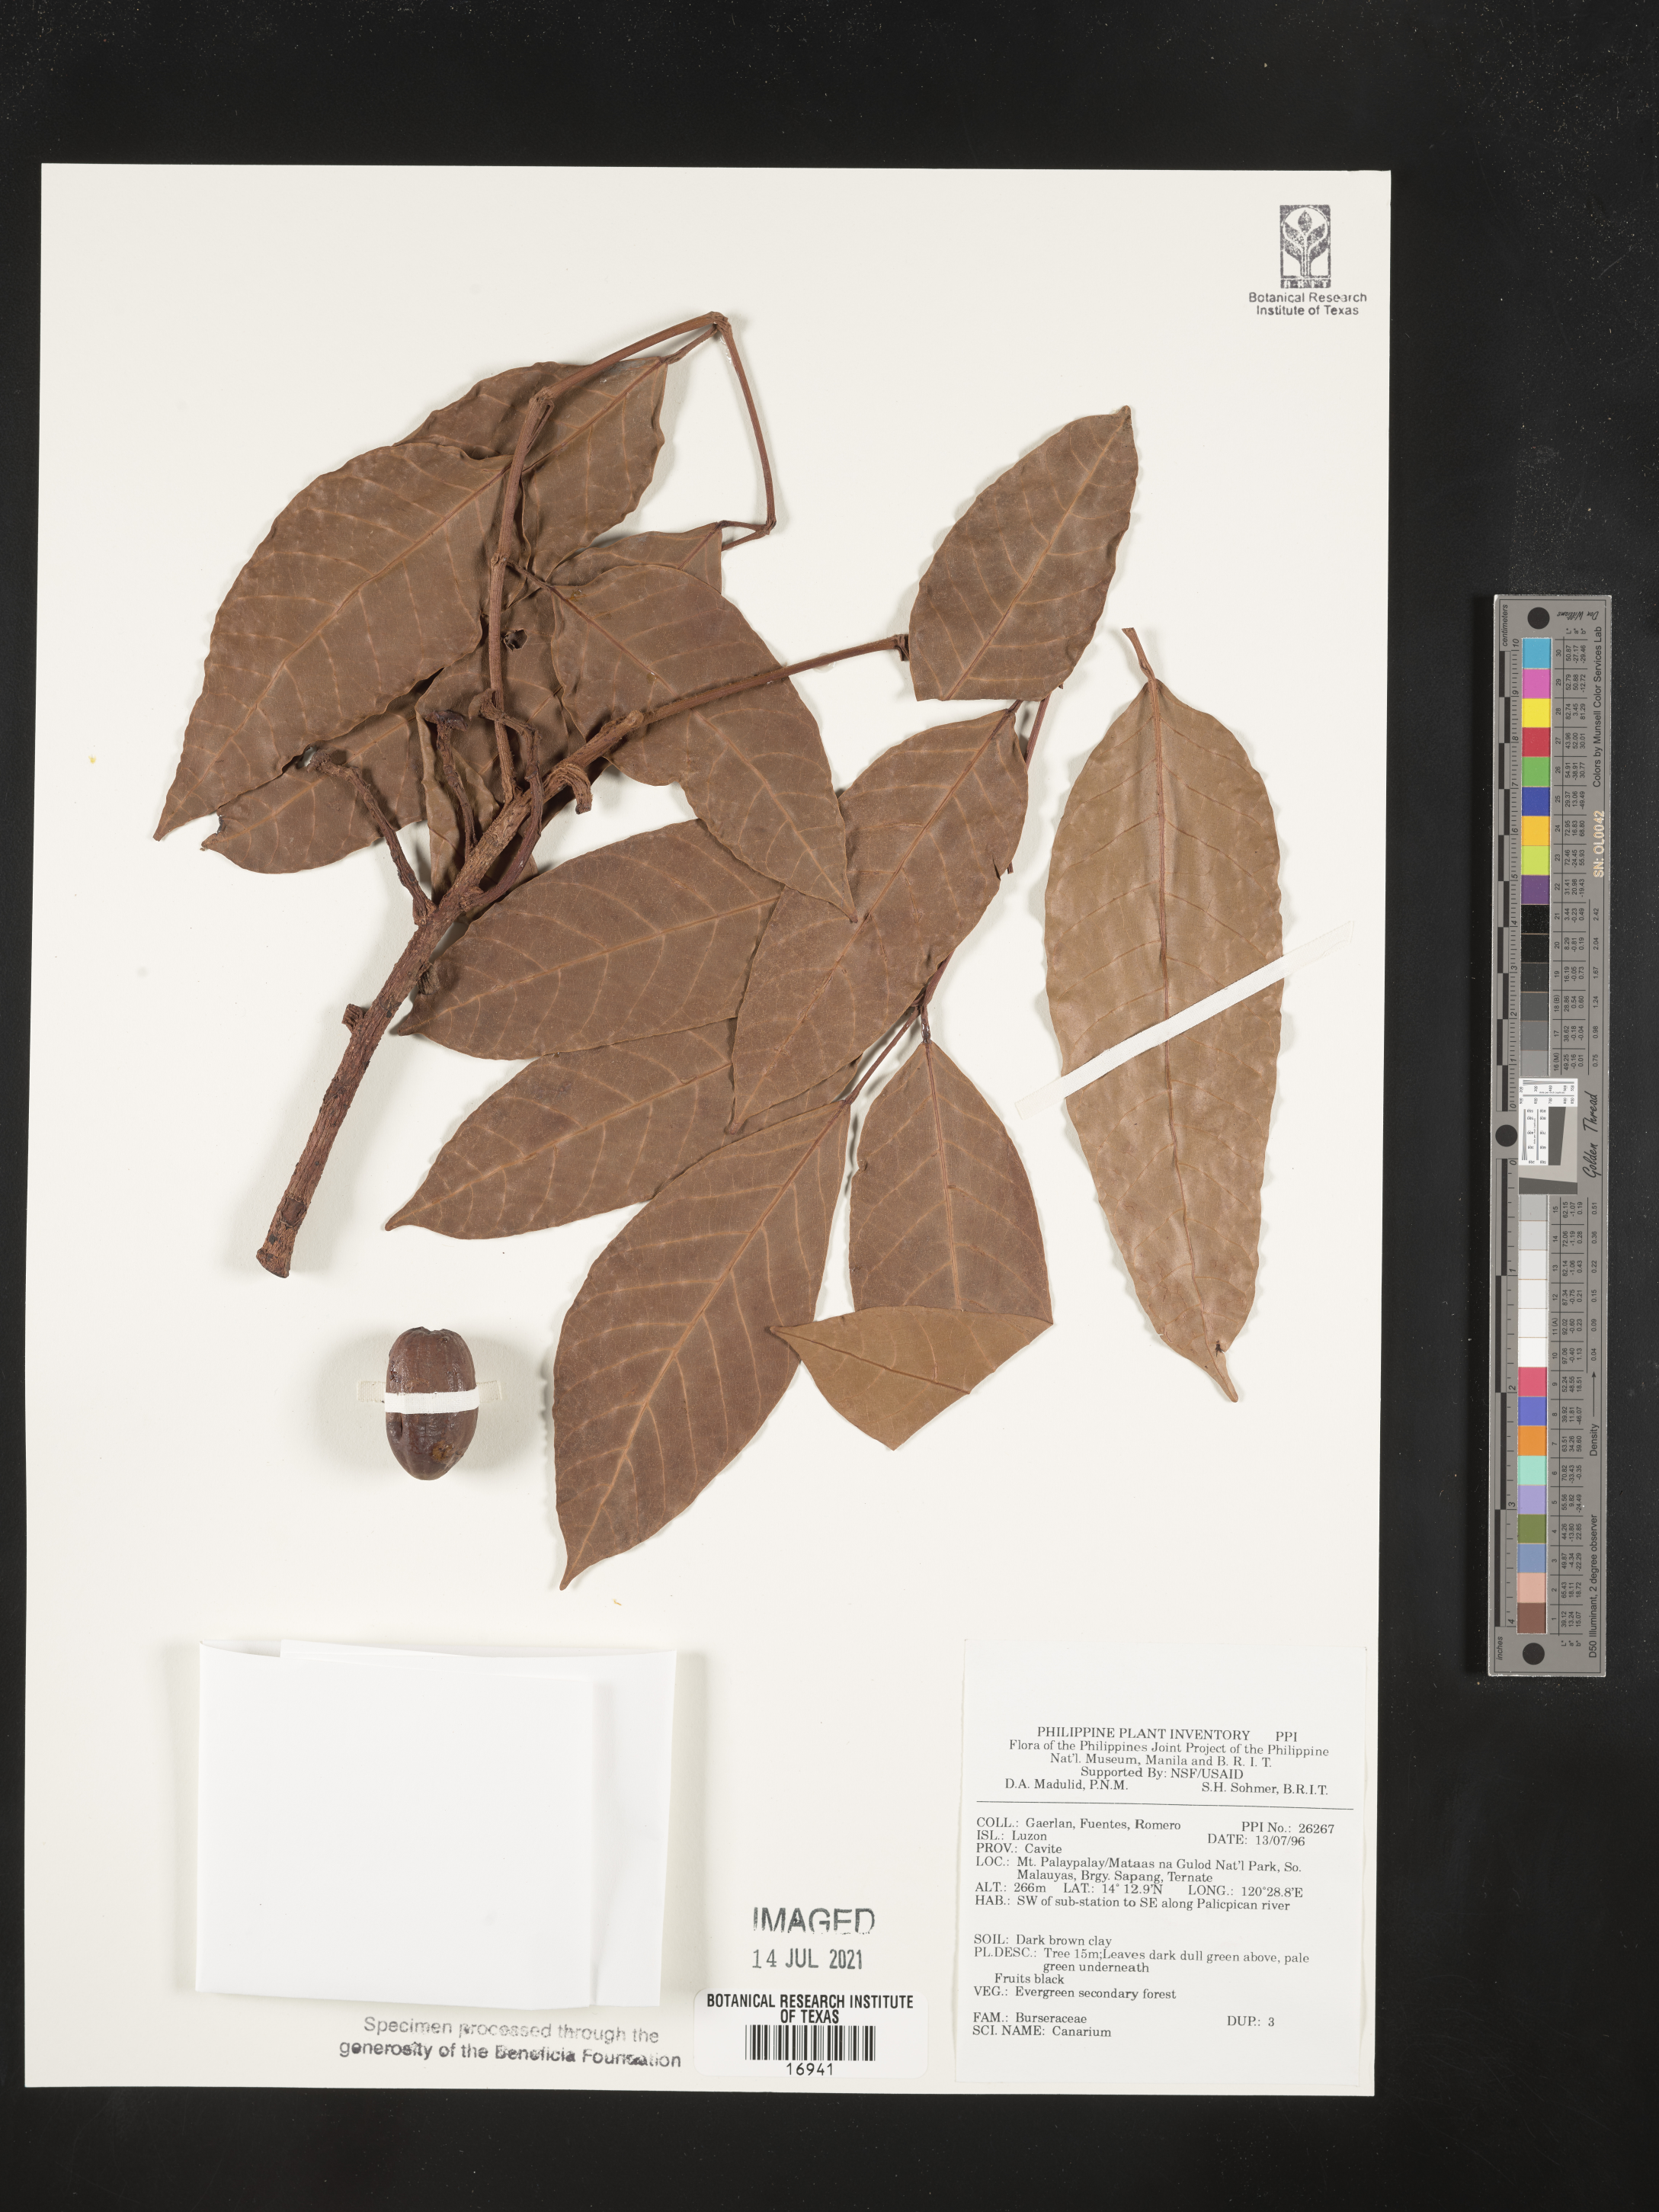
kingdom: Plantae
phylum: Tracheophyta
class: Magnoliopsida
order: Sapindales
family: Burseraceae
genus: Canarium
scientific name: Canarium
